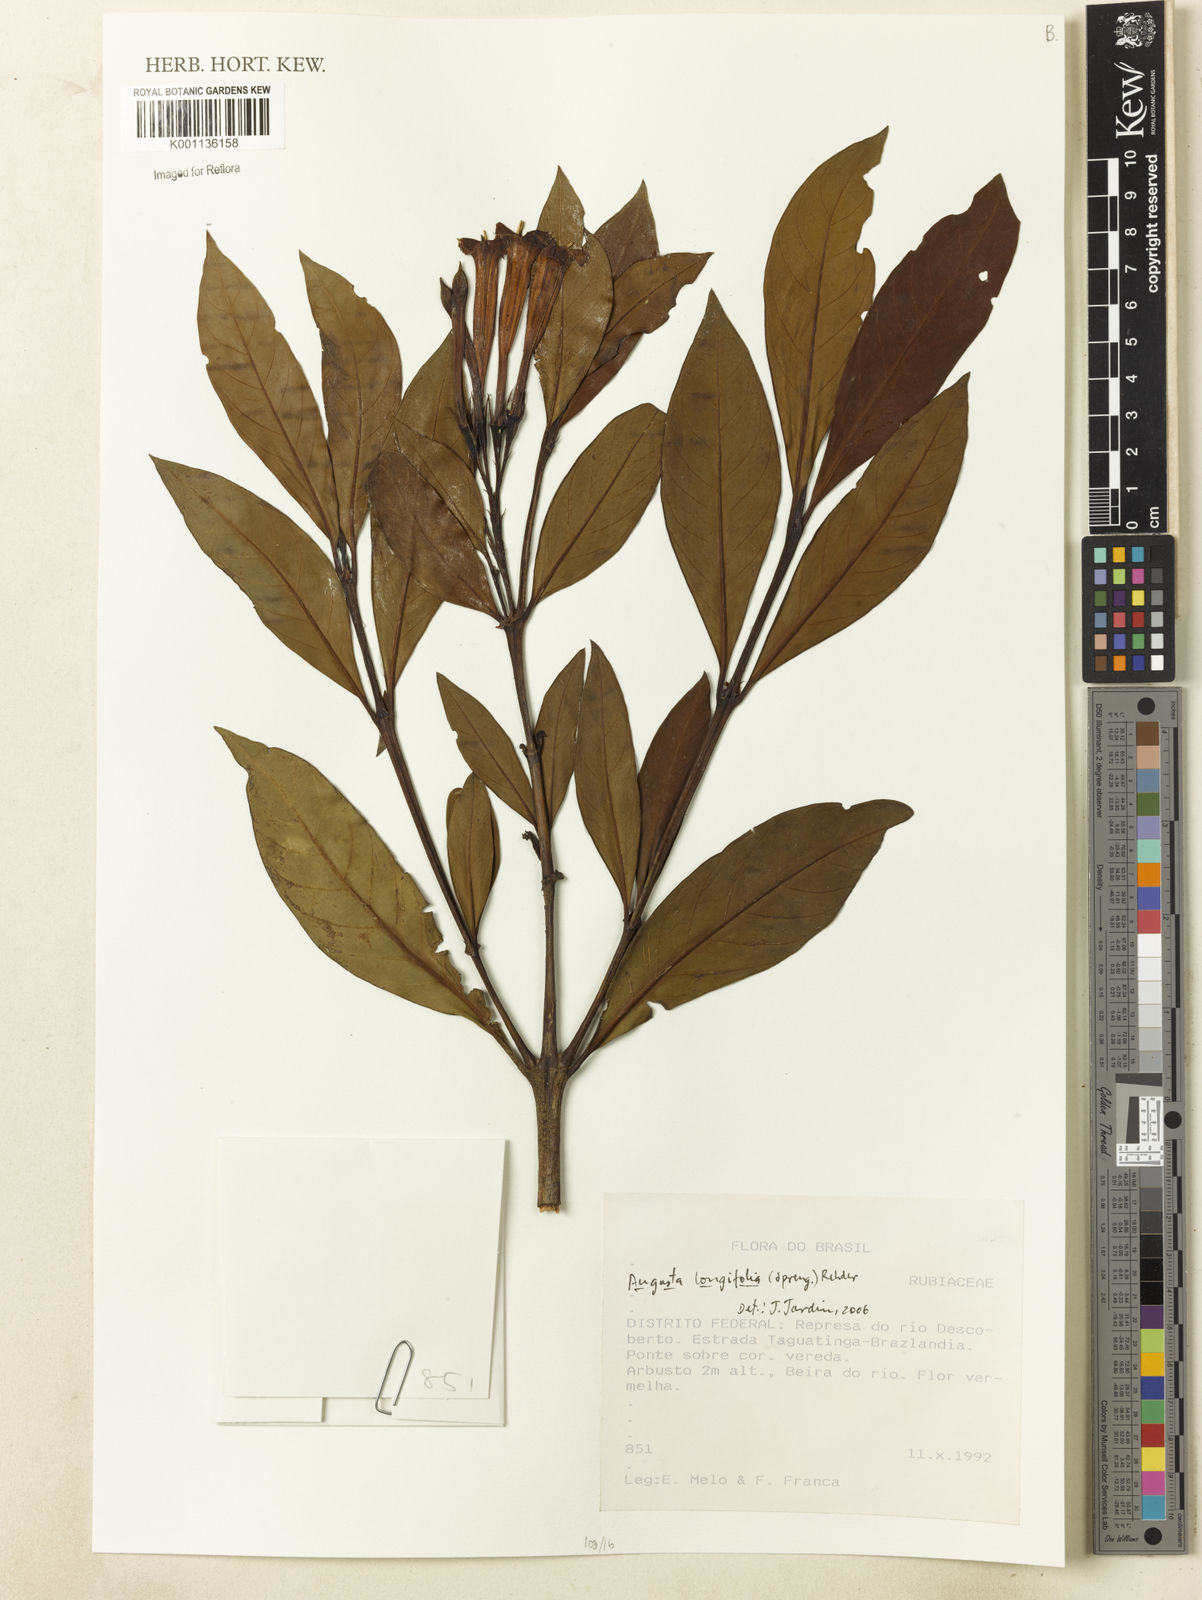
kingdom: Plantae
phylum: Tracheophyta
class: Magnoliopsida
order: Gentianales
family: Rubiaceae
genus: Augusta
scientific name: Augusta longifolia
